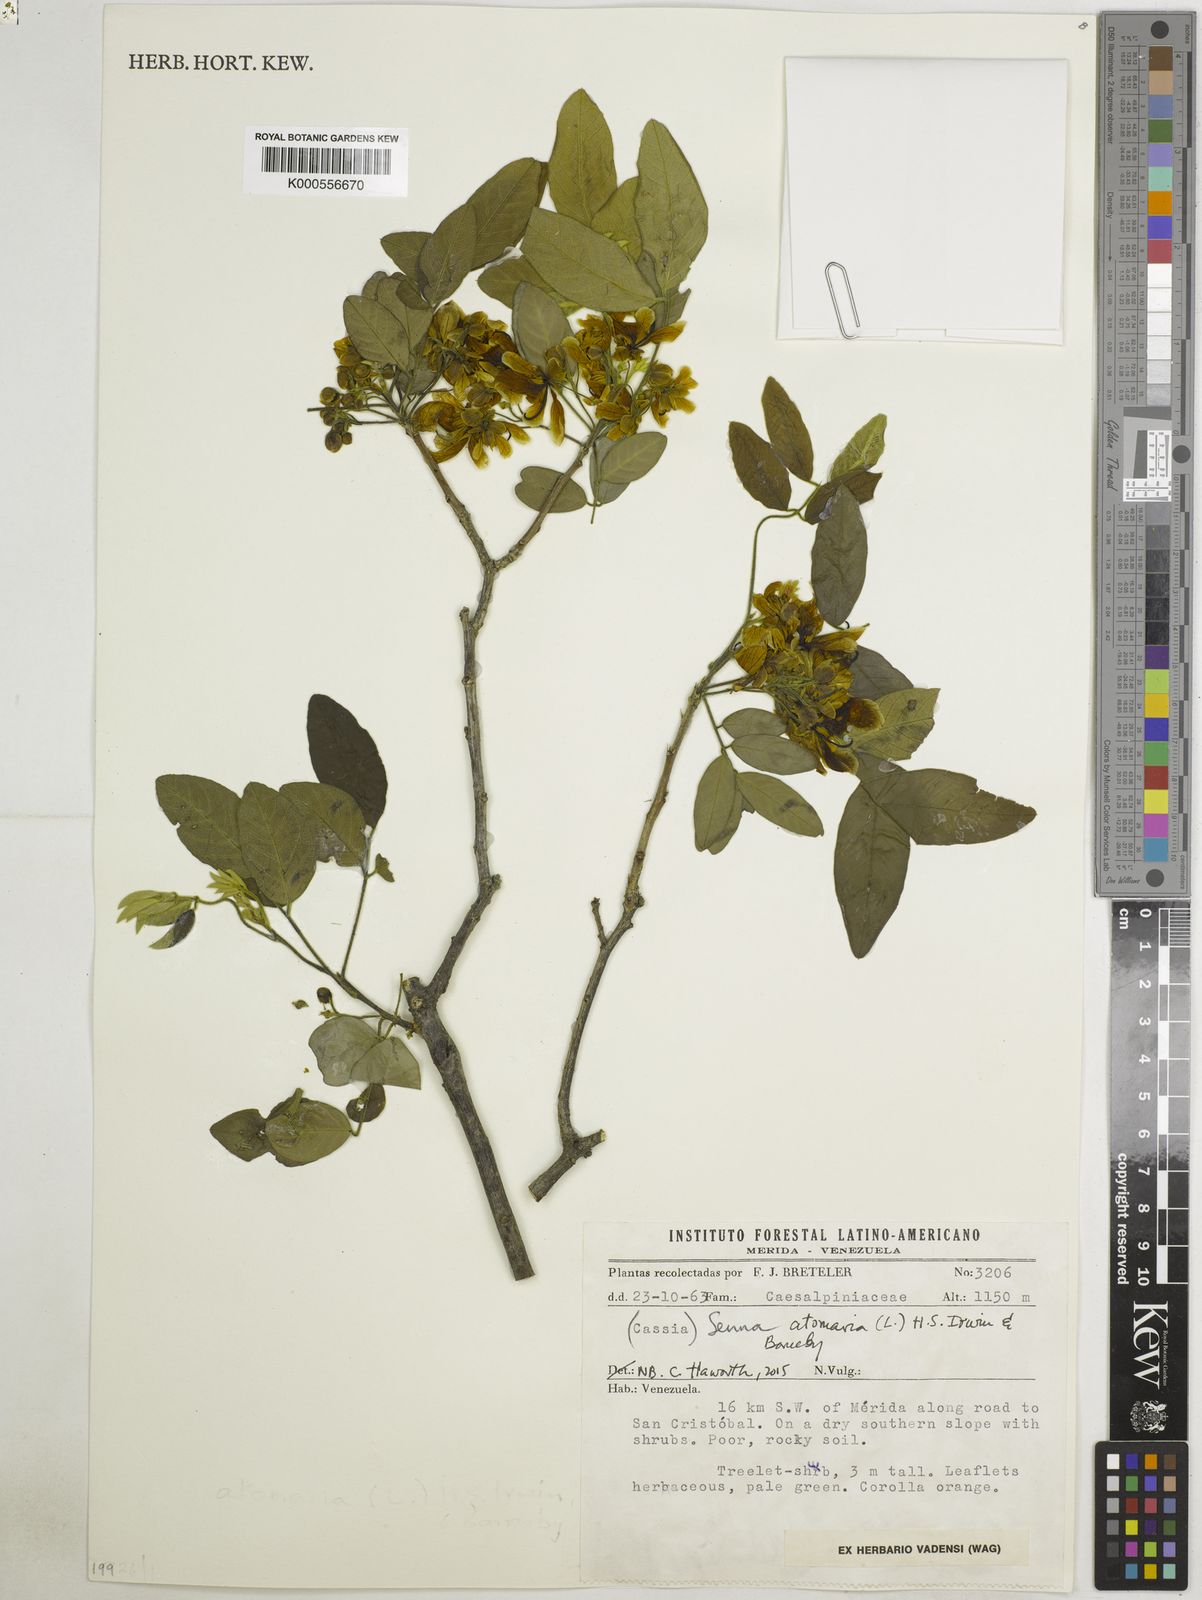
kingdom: Plantae
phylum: Tracheophyta
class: Magnoliopsida
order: Fabales
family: Fabaceae
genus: Senna
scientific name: Senna atomaria
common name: Flor de san jose
